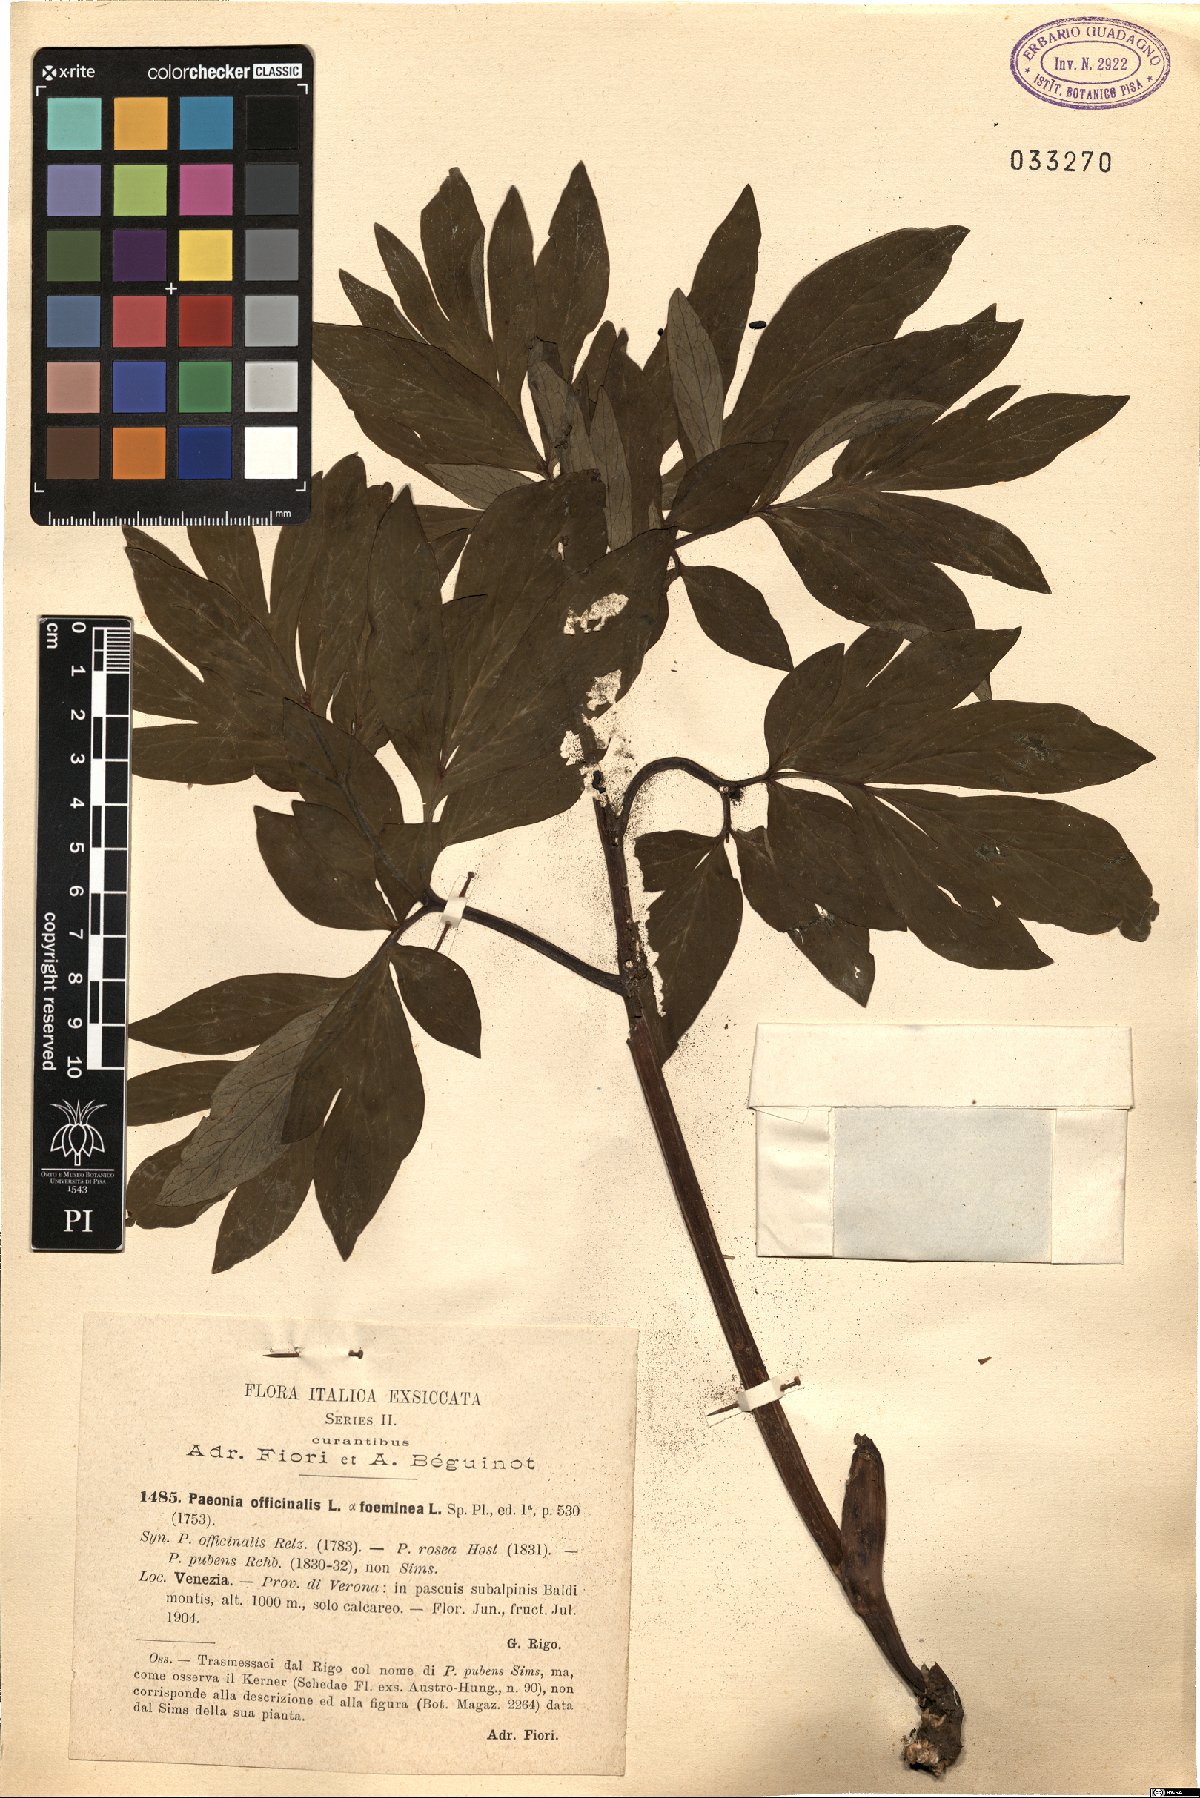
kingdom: Plantae
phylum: Tracheophyta
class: Magnoliopsida
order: Saxifragales
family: Paeoniaceae
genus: Paeonia
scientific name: Paeonia officinalis
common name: Common peony
